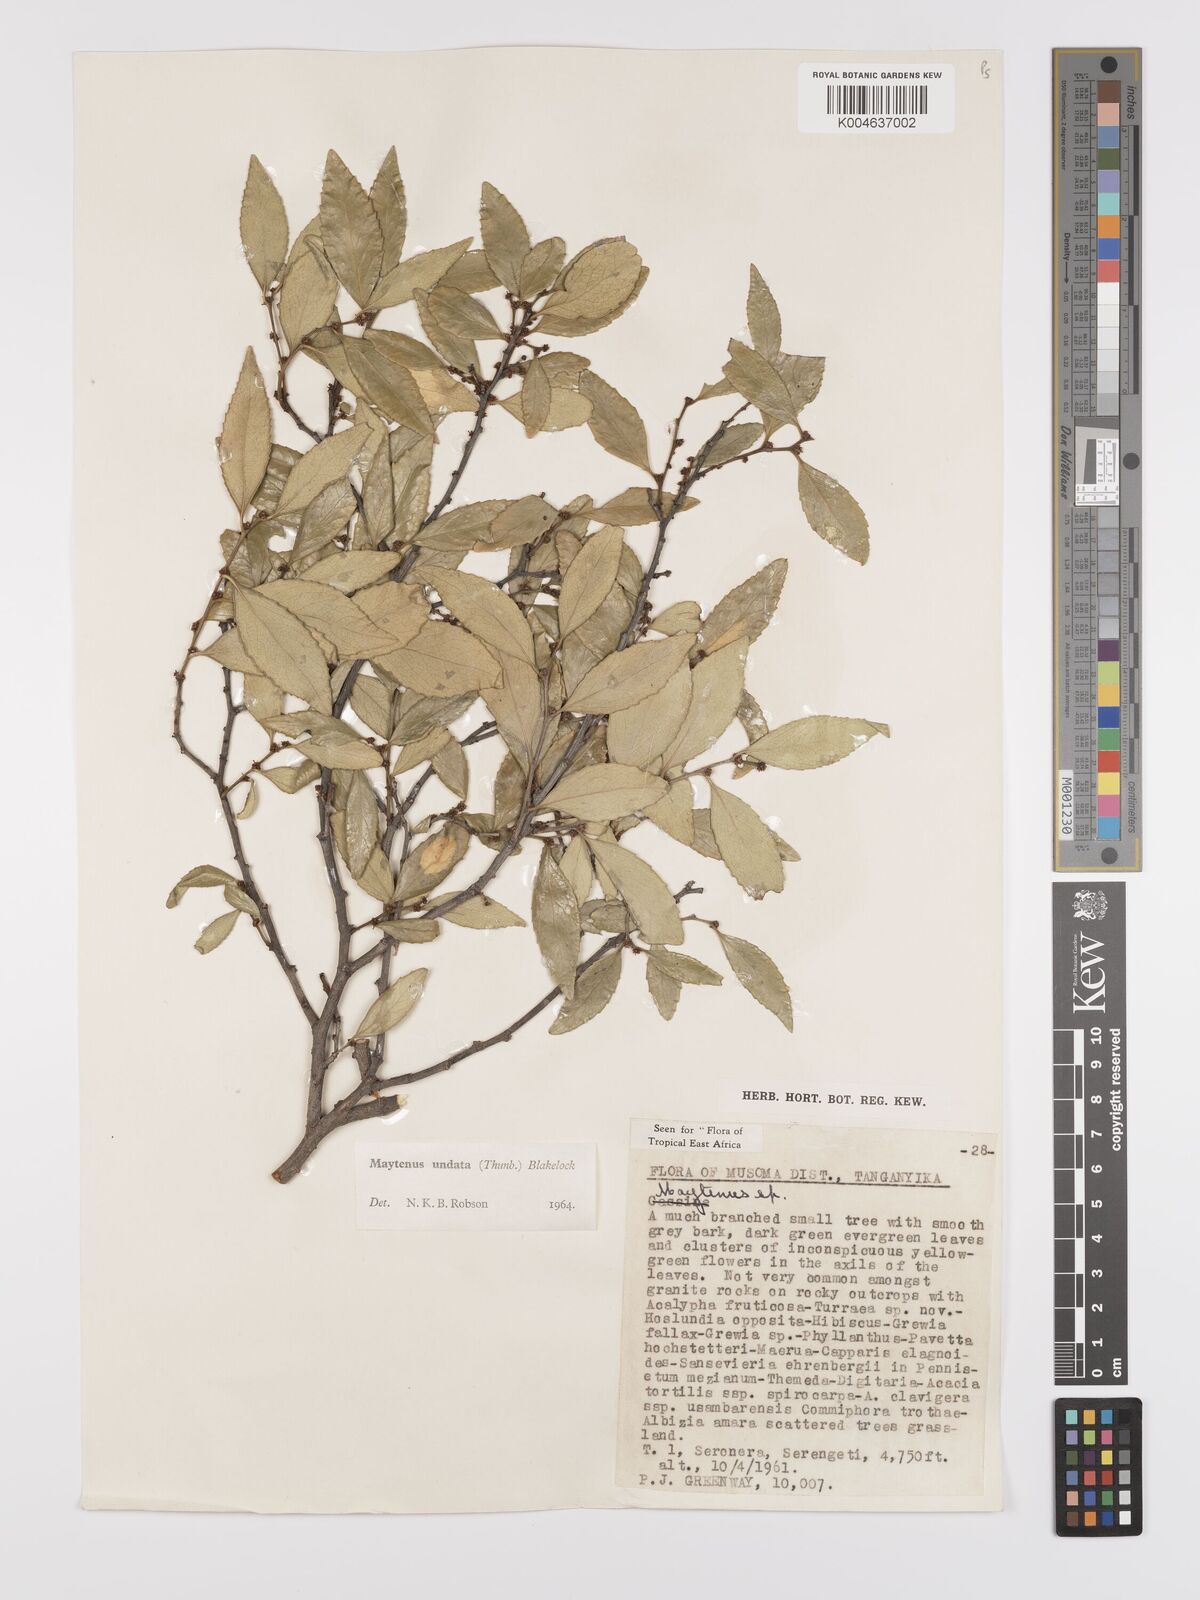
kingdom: Plantae
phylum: Tracheophyta
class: Magnoliopsida
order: Celastrales
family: Celastraceae
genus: Gymnosporia
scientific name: Gymnosporia undata
